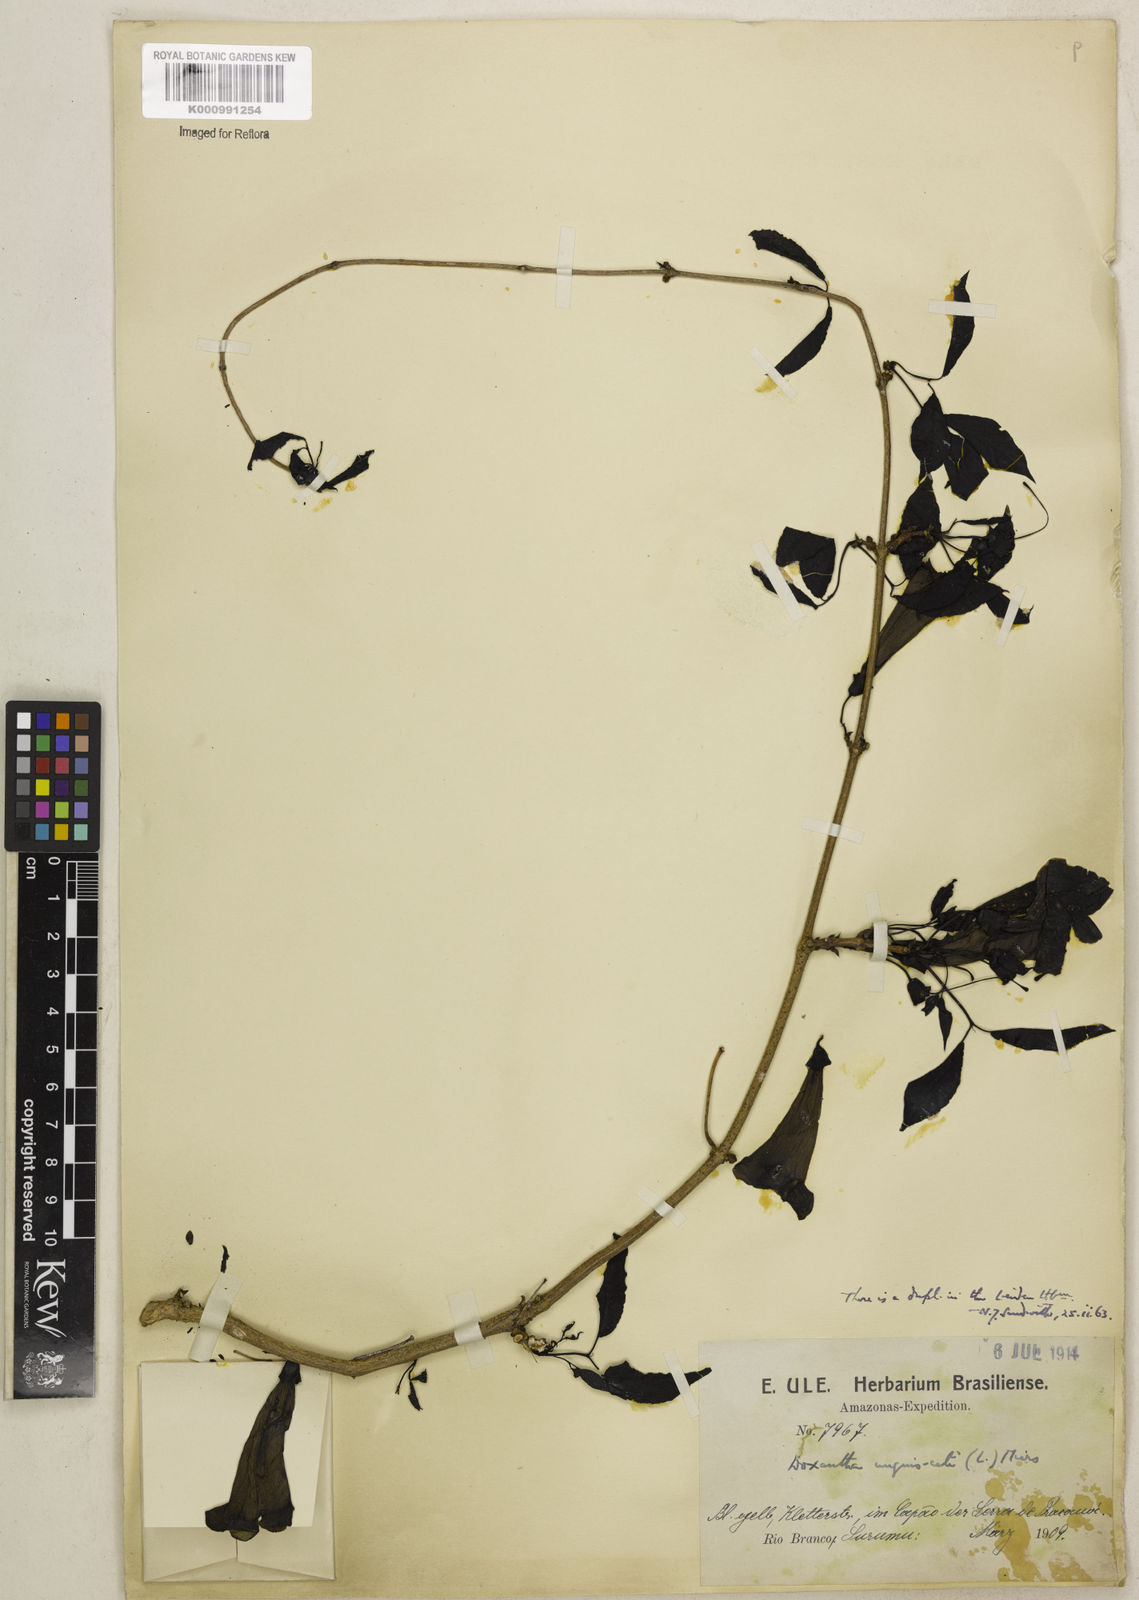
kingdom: Plantae
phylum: Tracheophyta
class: Magnoliopsida
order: Lamiales
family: Bignoniaceae
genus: Dolichandra
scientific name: Dolichandra unguis-cati
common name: Catclaw vine
